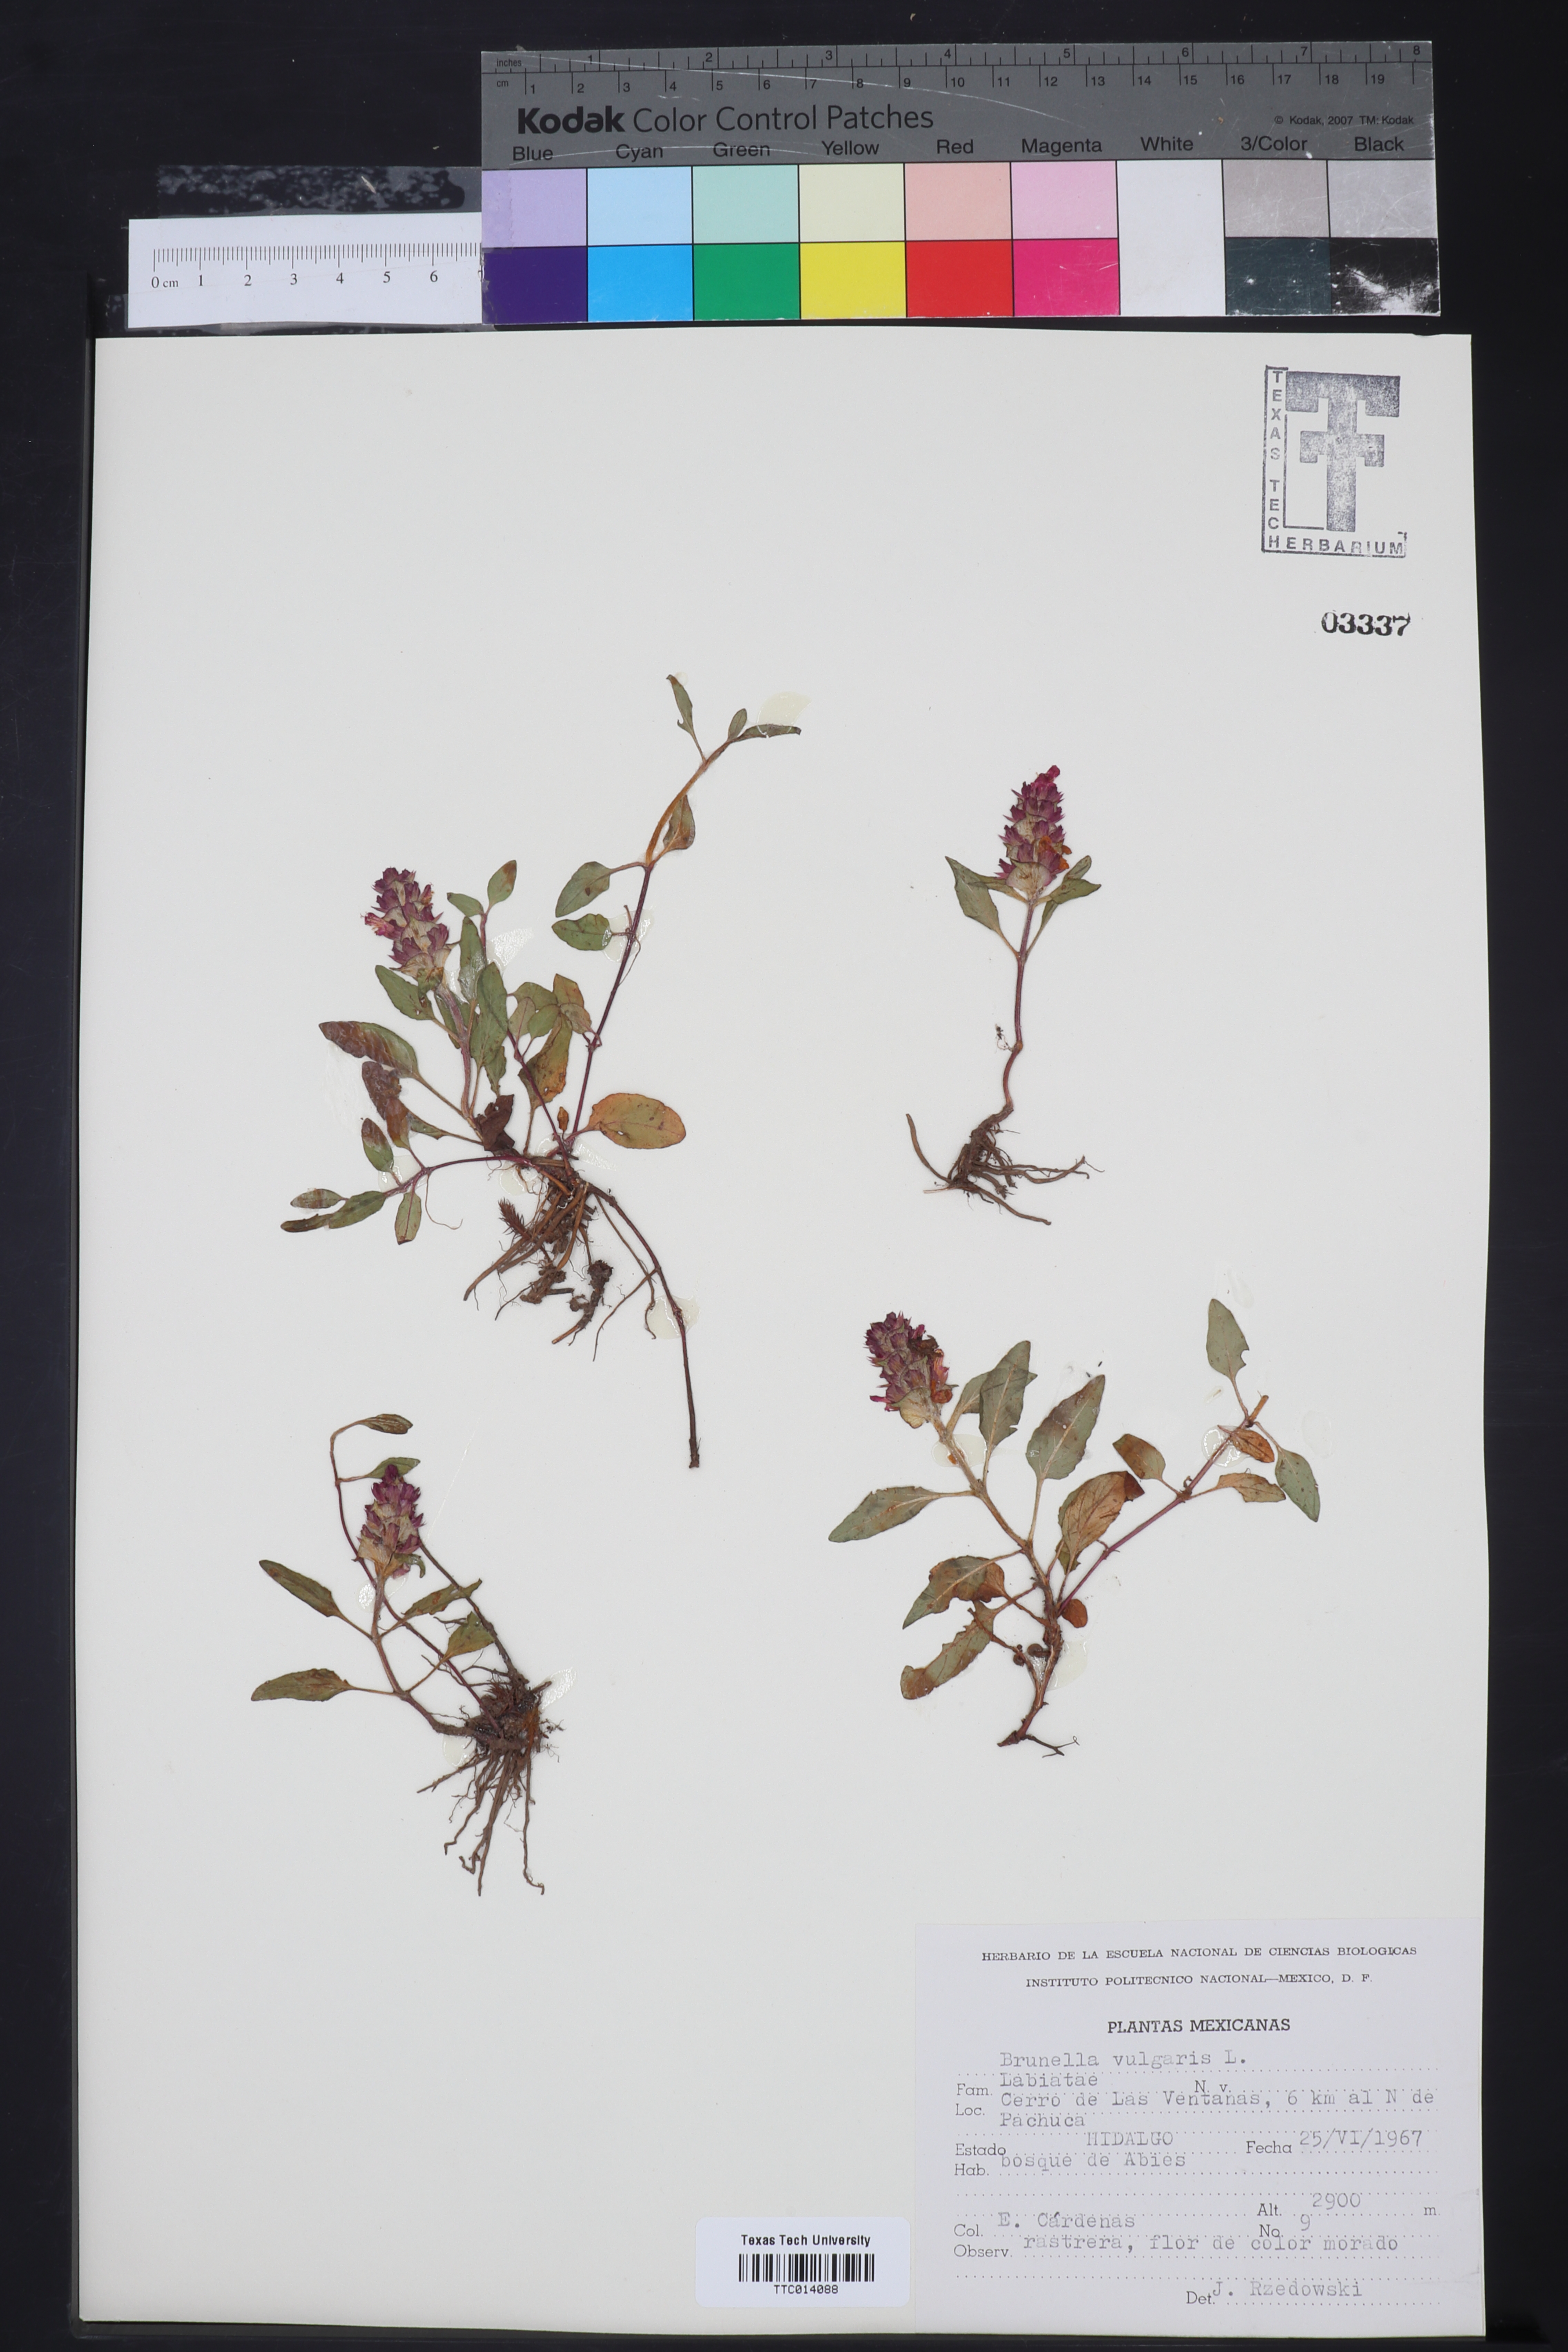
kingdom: Plantae
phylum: Tracheophyta
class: Magnoliopsida
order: Lamiales
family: Lamiaceae
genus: Prunella
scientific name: Prunella vulgaris
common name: Heal-all
